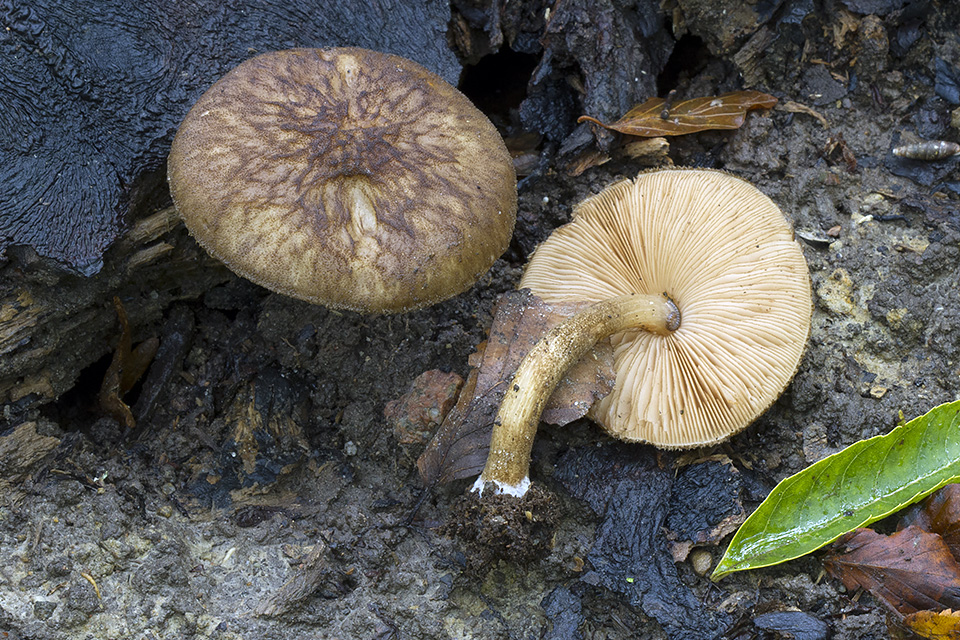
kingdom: Fungi
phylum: Basidiomycota
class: Agaricomycetes
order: Agaricales
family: Pluteaceae
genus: Pluteus
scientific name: Pluteus umbrosus
